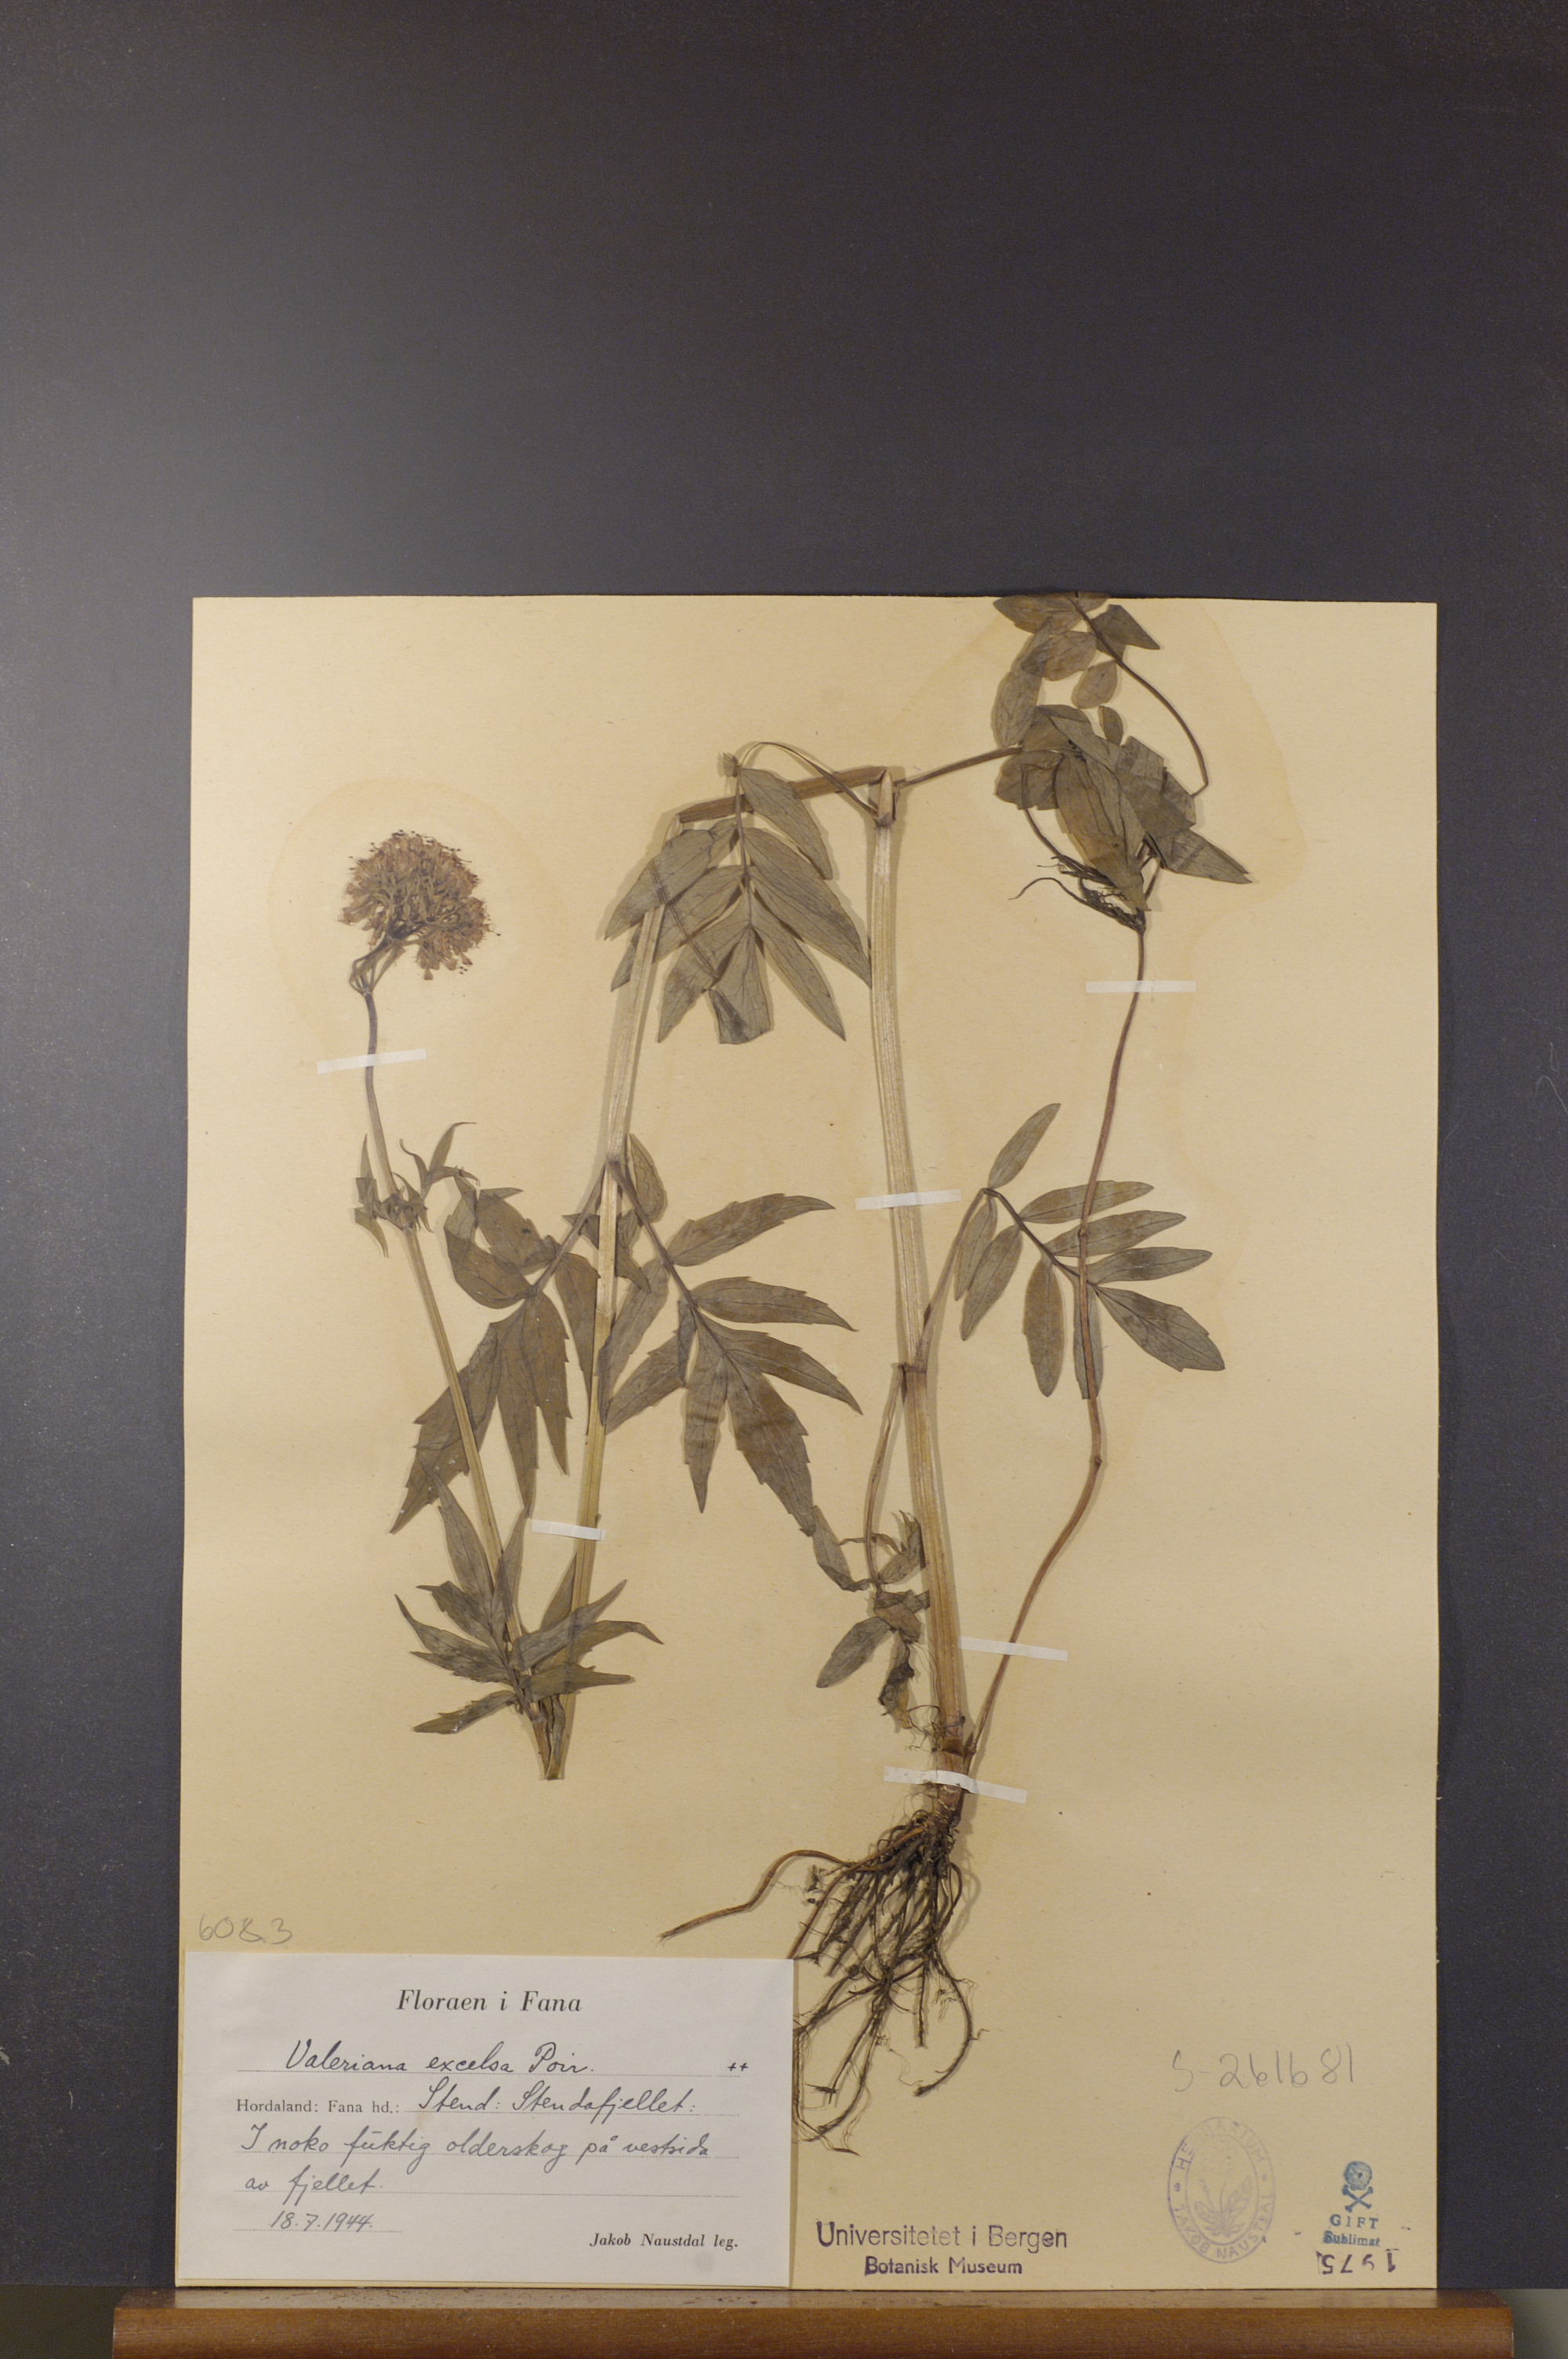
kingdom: Plantae
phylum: Tracheophyta
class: Magnoliopsida
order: Dipsacales
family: Caprifoliaceae
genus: Valeriana
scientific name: Valeriana sambucifolia
